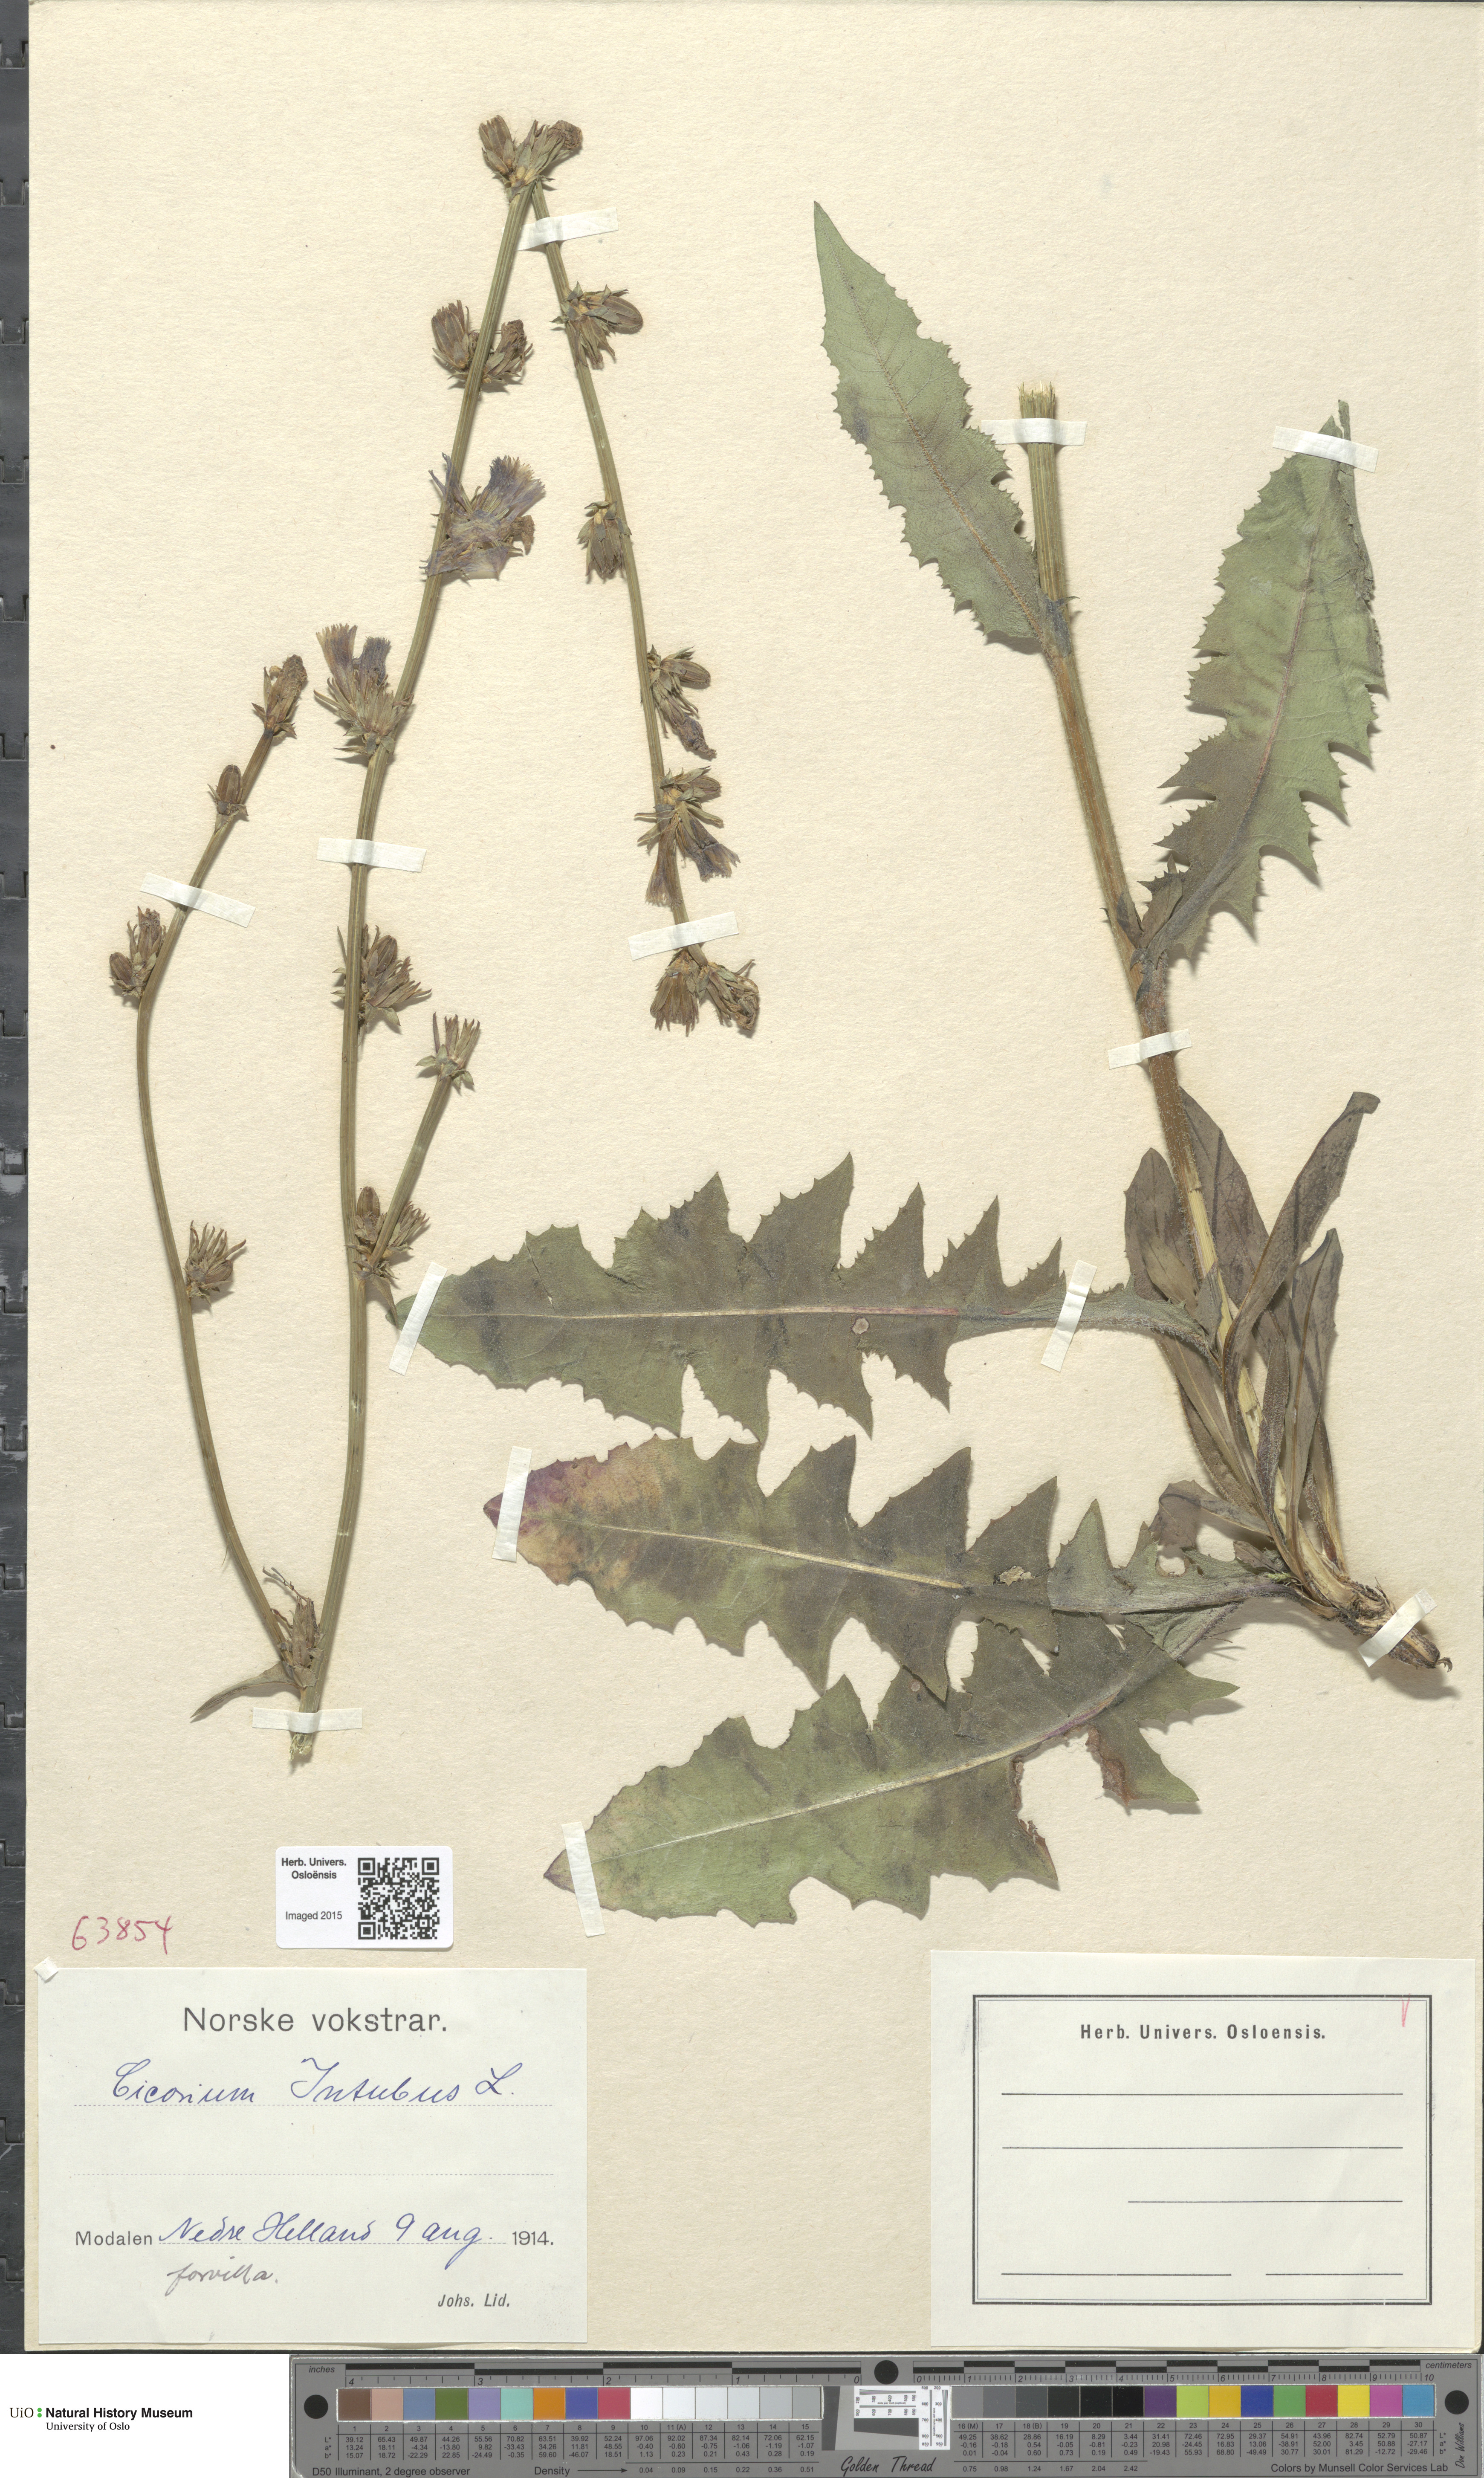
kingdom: Plantae
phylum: Tracheophyta
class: Magnoliopsida
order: Asterales
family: Asteraceae
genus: Cichorium
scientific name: Cichorium intybus
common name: Chicory
